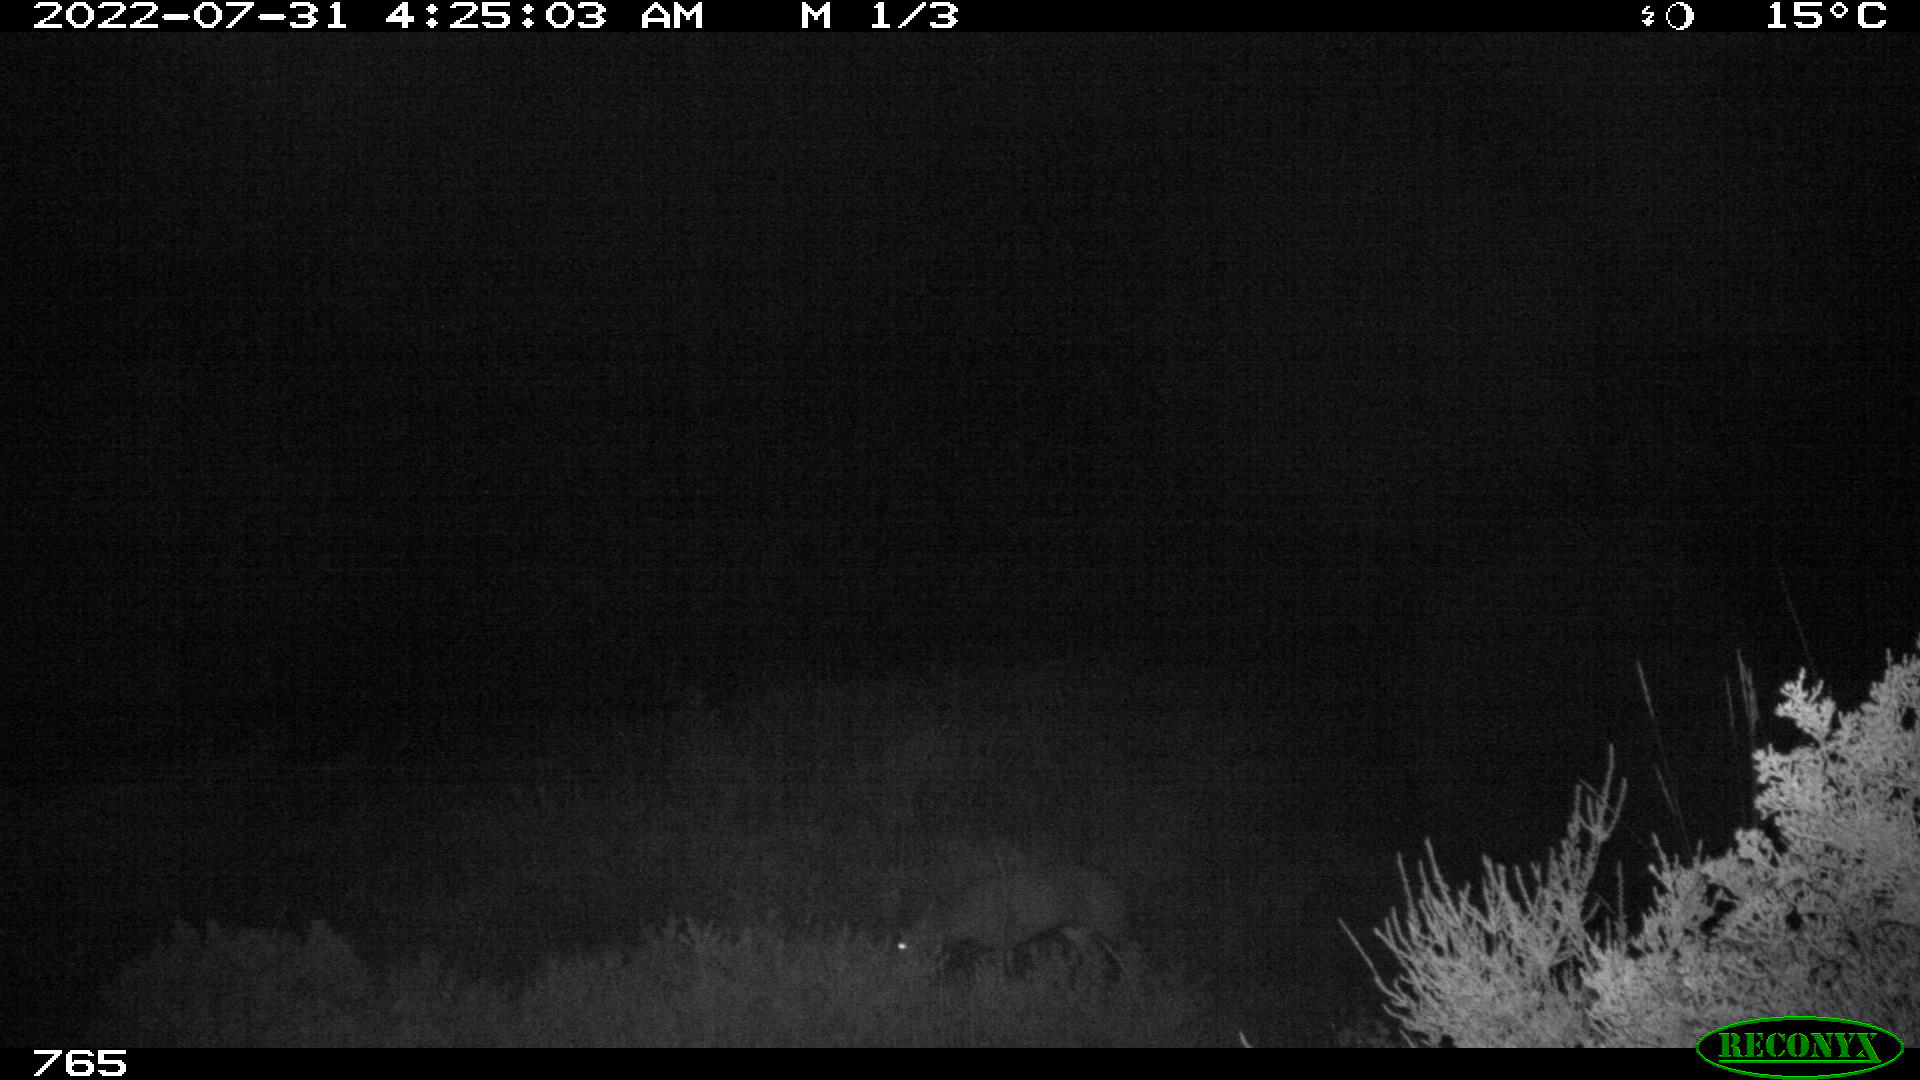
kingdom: Animalia
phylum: Chordata
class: Mammalia
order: Artiodactyla
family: Cervidae
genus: Capreolus
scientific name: Capreolus capreolus
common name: Western roe deer
